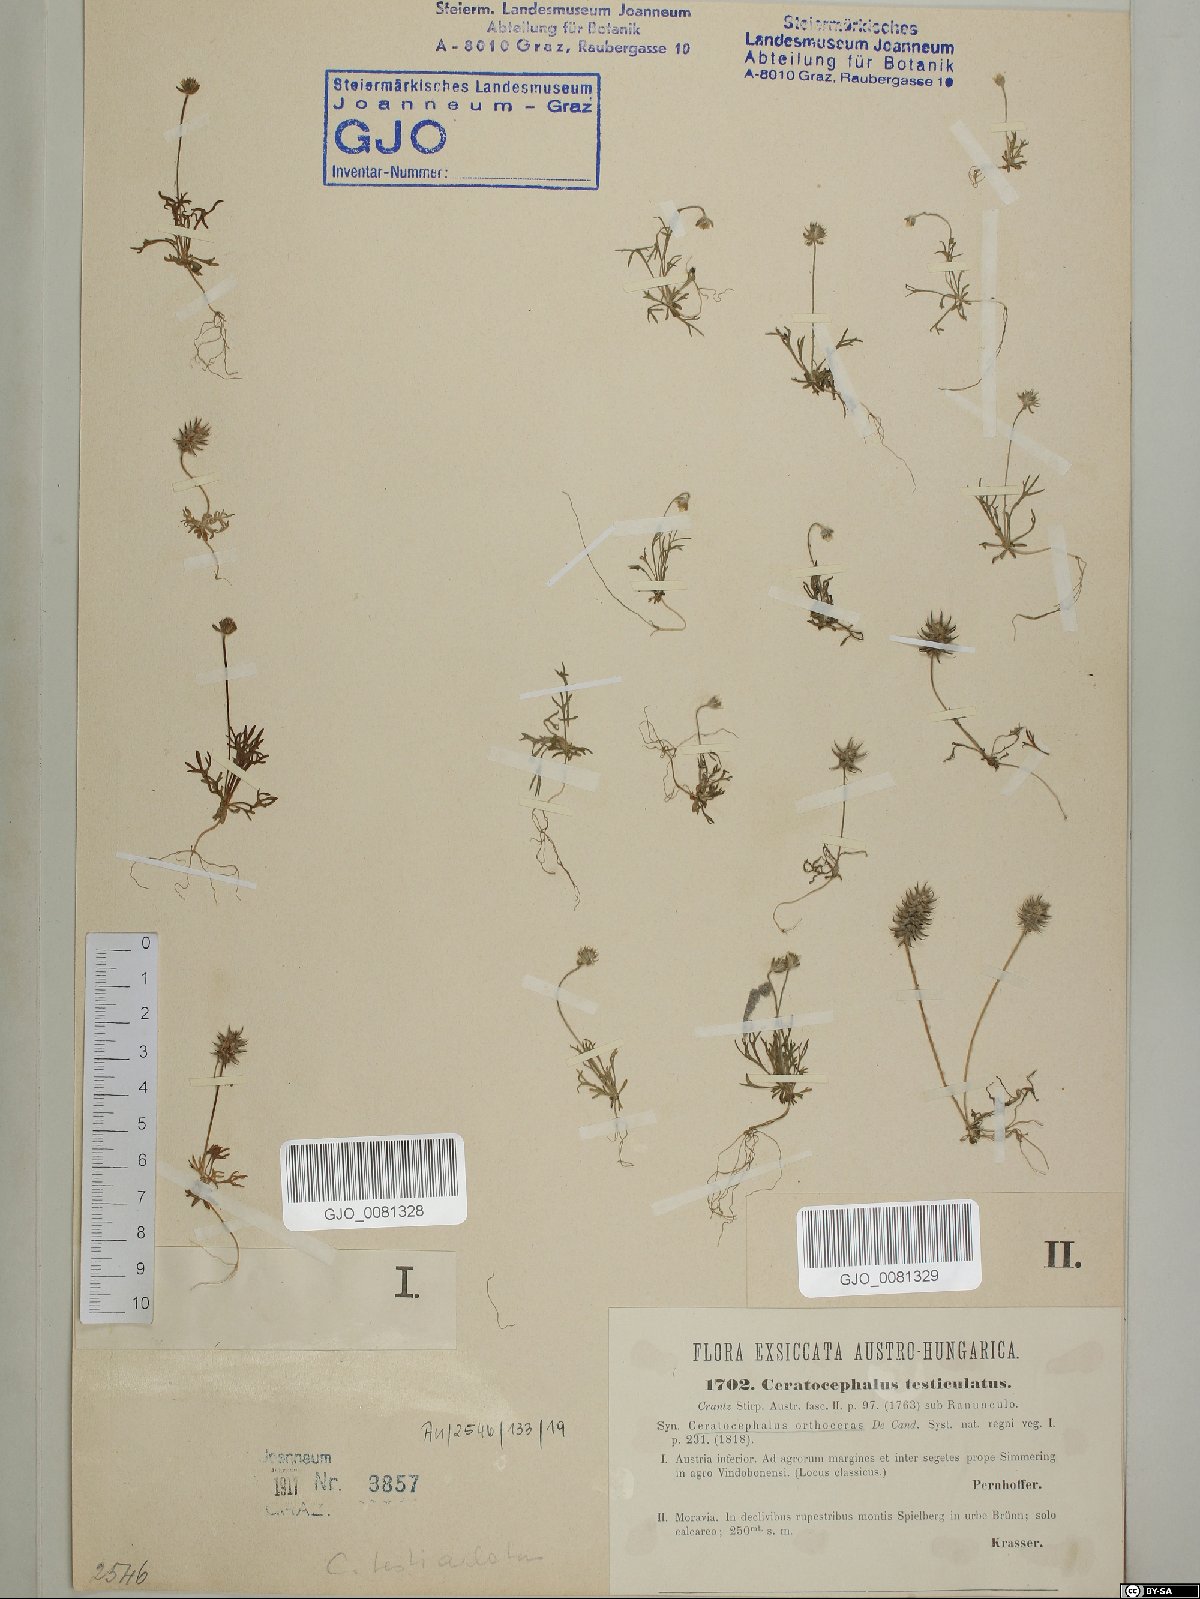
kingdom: Plantae
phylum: Tracheophyta
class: Magnoliopsida
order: Ranunculales
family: Ranunculaceae
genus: Ceratocephala
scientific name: Ceratocephala orthoceras
